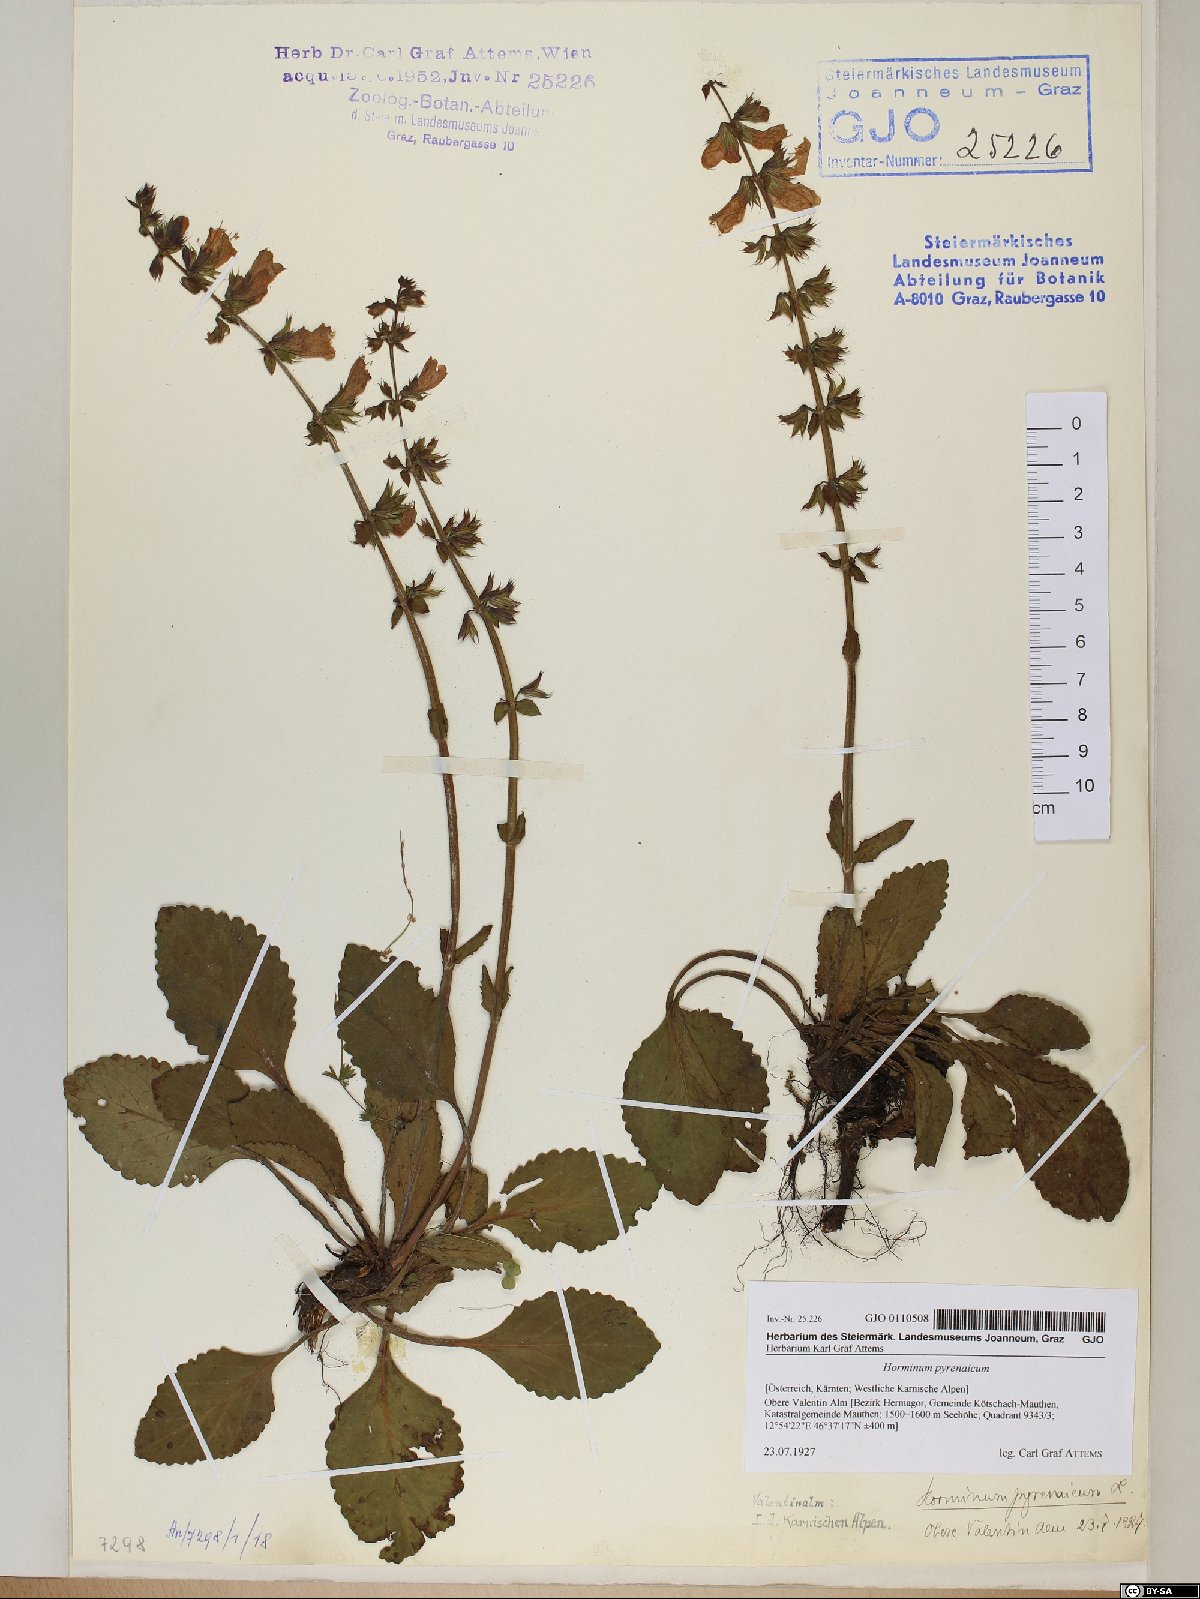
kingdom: Plantae
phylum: Tracheophyta
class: Magnoliopsida
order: Lamiales
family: Lamiaceae
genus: Horminum
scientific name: Horminum pyrenaicum
